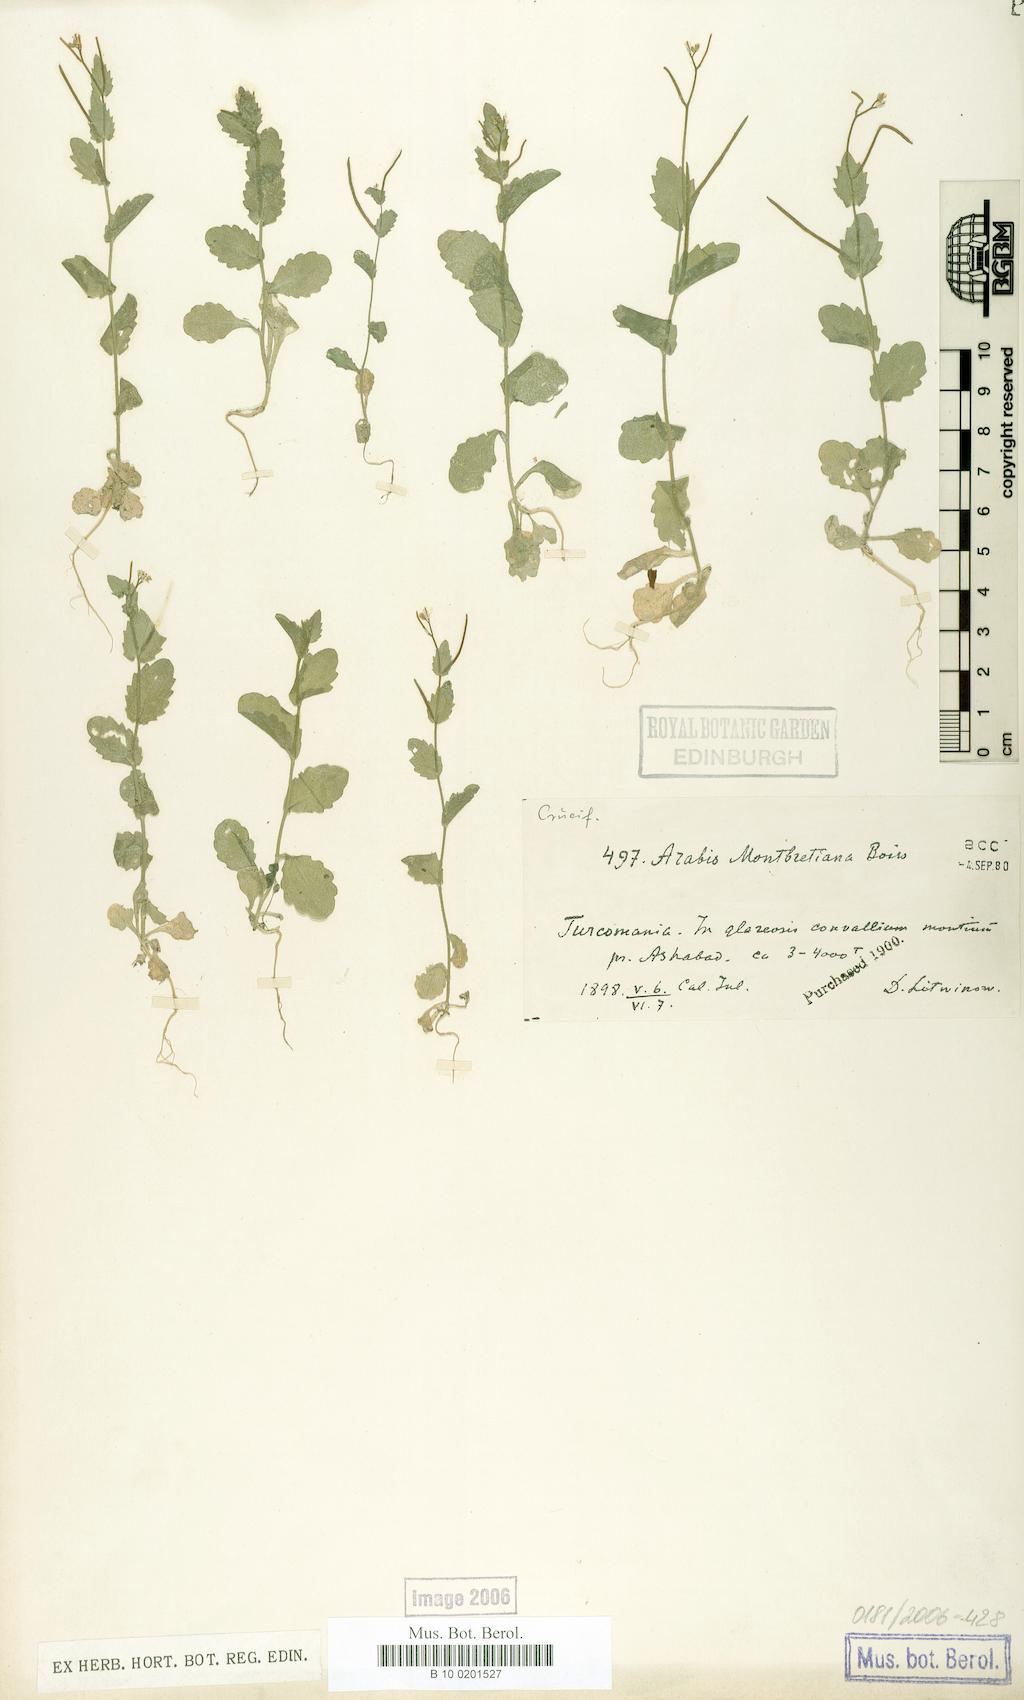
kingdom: Plantae
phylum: Tracheophyta
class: Magnoliopsida
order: Brassicales
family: Brassicaceae
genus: Arabis
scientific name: Arabis
